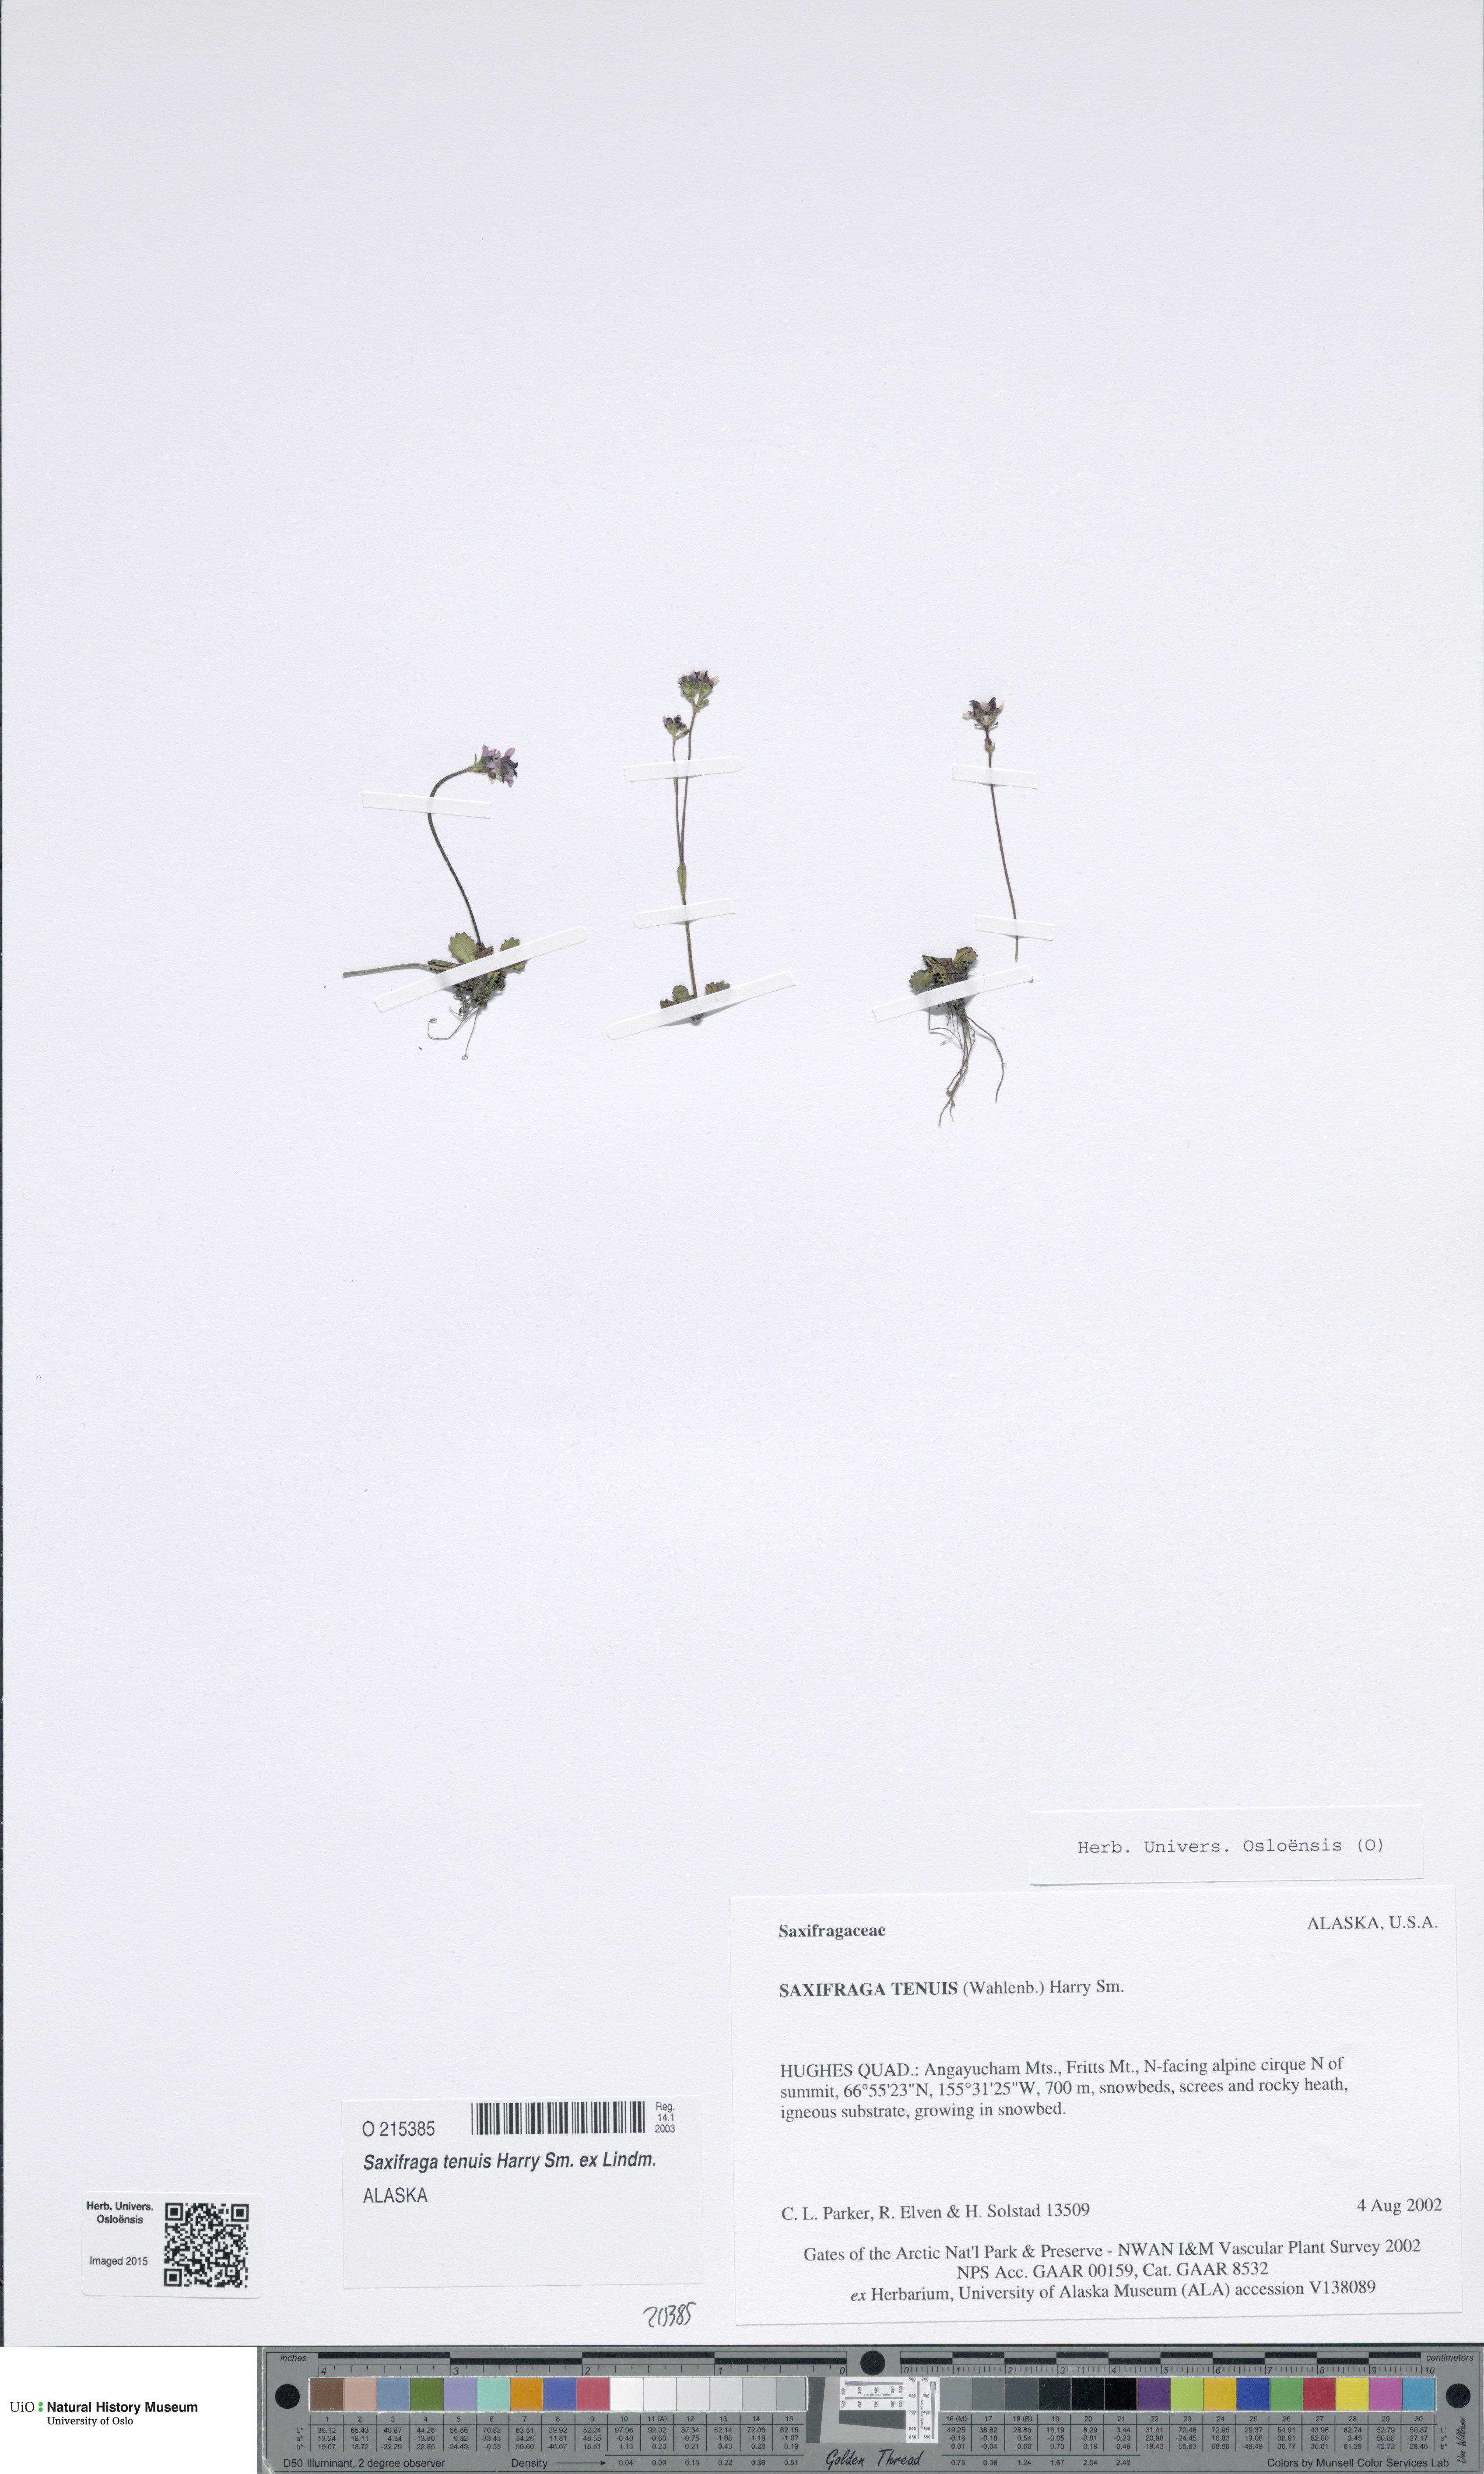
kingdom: Plantae
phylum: Tracheophyta
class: Magnoliopsida
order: Saxifragales
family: Saxifragaceae
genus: Micranthes
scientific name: Micranthes tenuis
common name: Ottertail pass saxifrage
